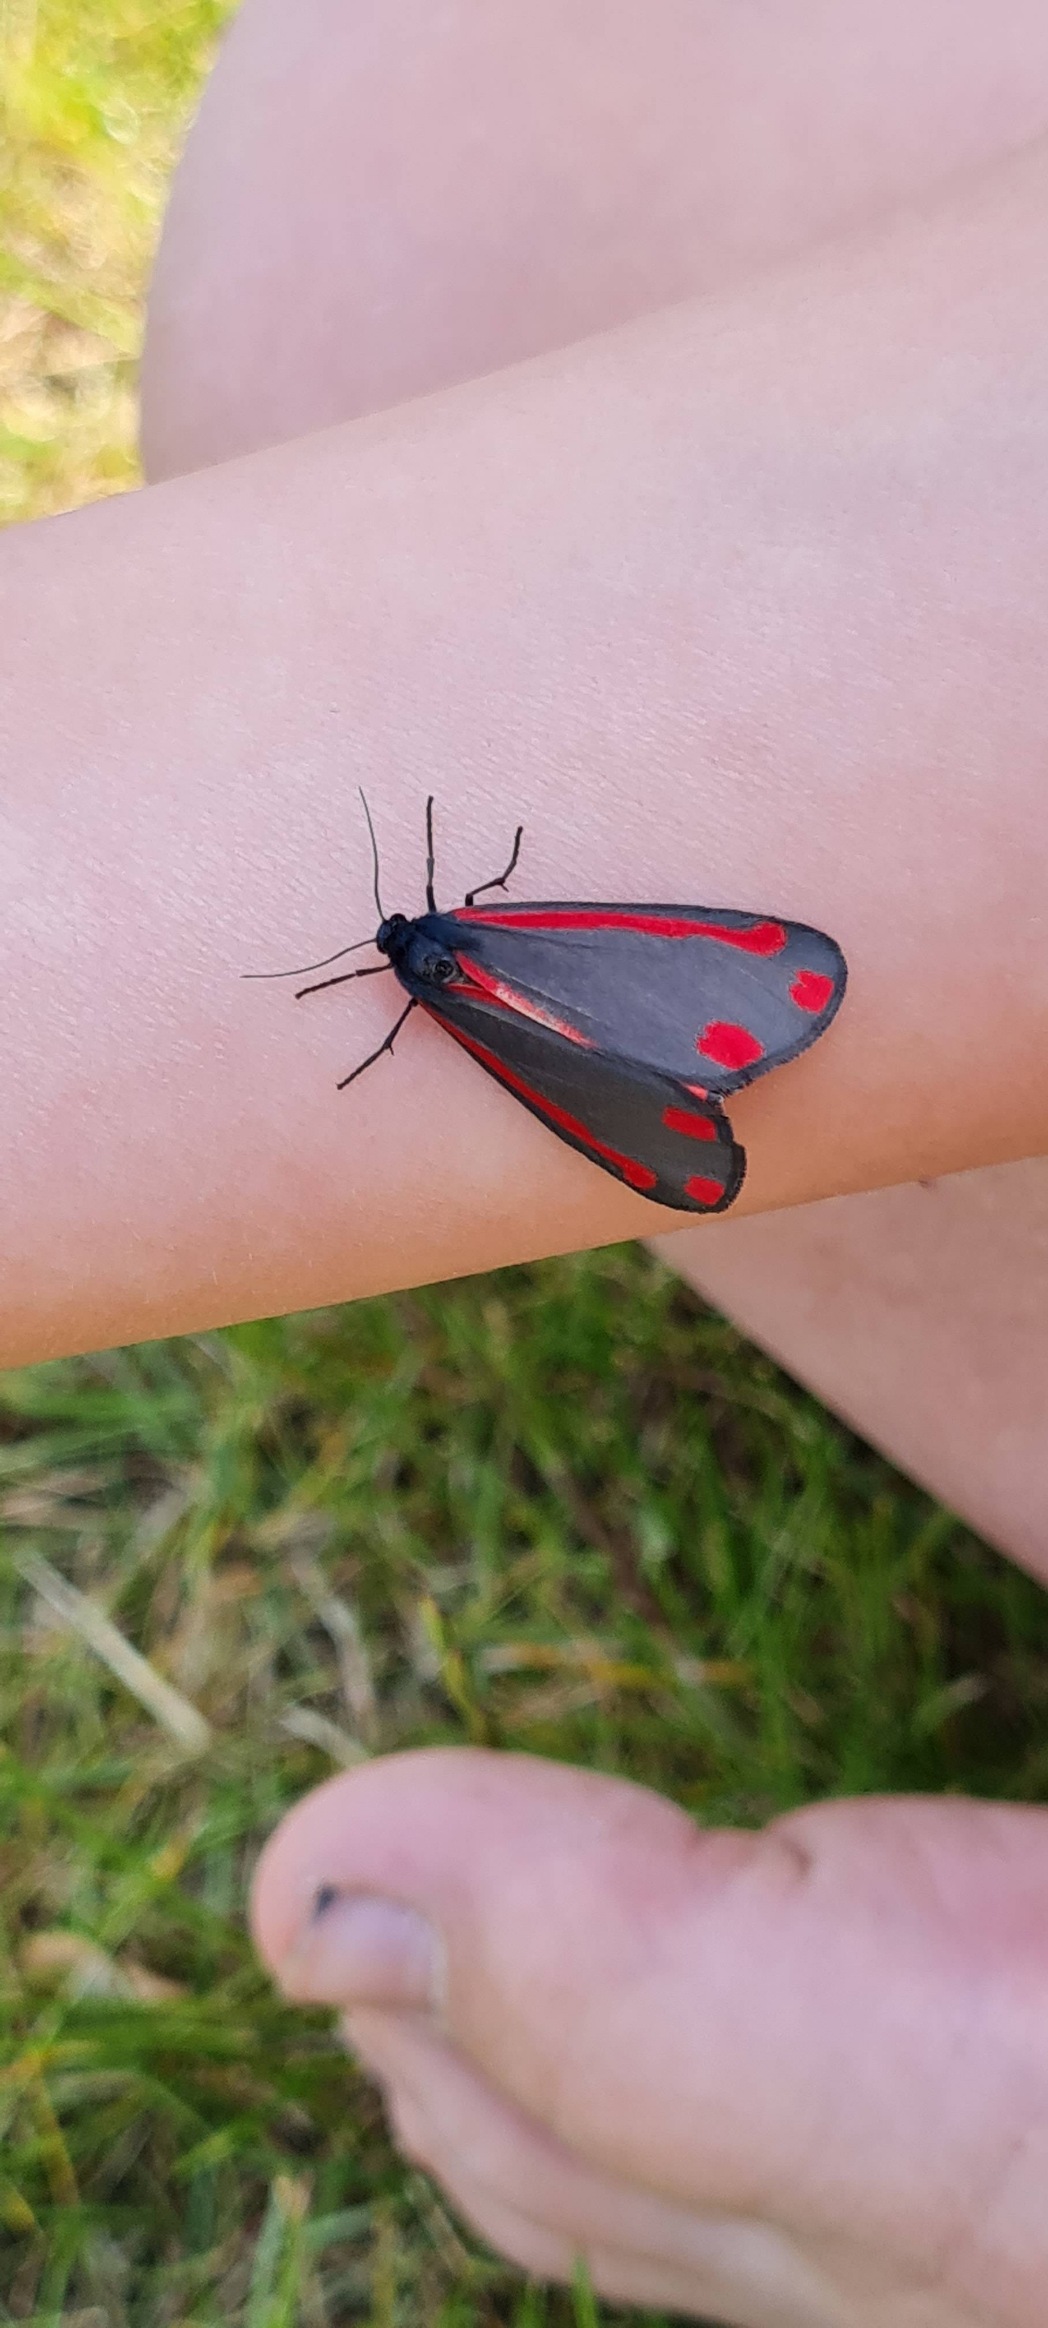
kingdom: Animalia
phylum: Arthropoda
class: Insecta
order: Lepidoptera
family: Erebidae
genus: Tyria
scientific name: Tyria jacobaeae
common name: Blodplet
